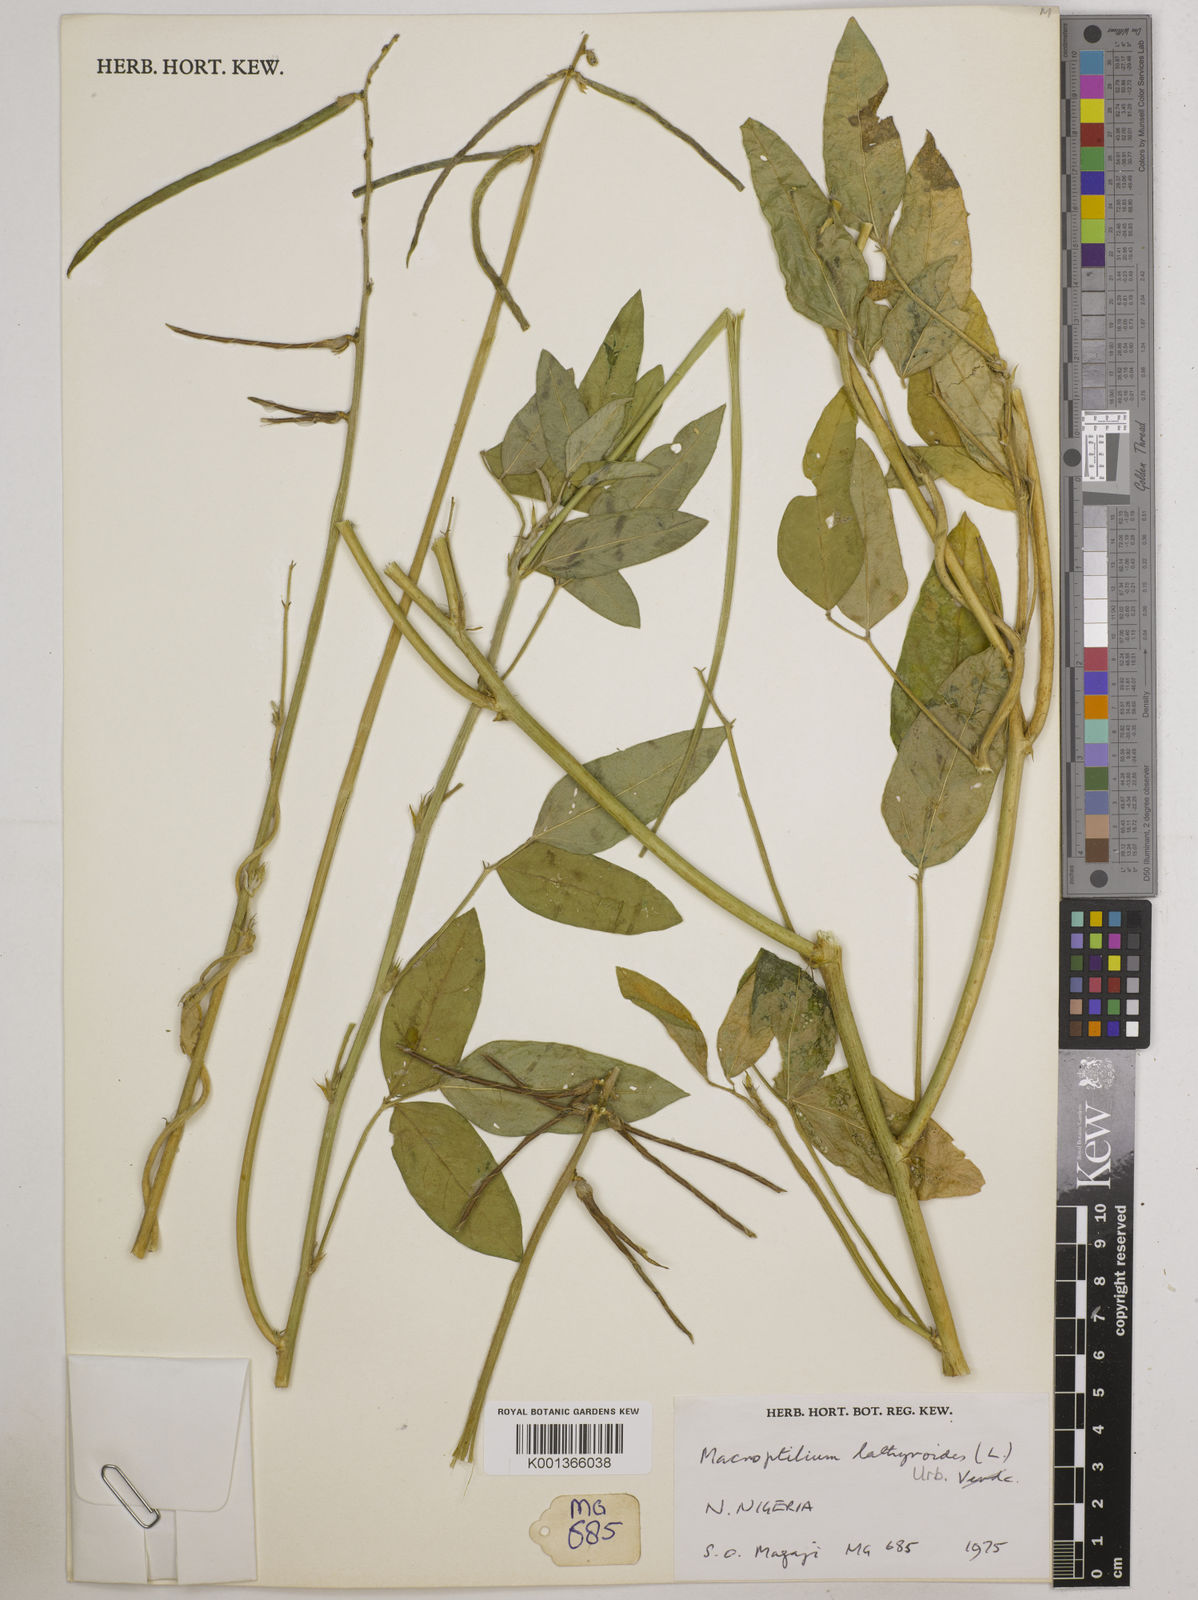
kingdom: Plantae
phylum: Tracheophyta
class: Magnoliopsida
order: Fabales
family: Fabaceae
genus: Macroptilium
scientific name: Macroptilium lathyroides
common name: Wild bushbean
